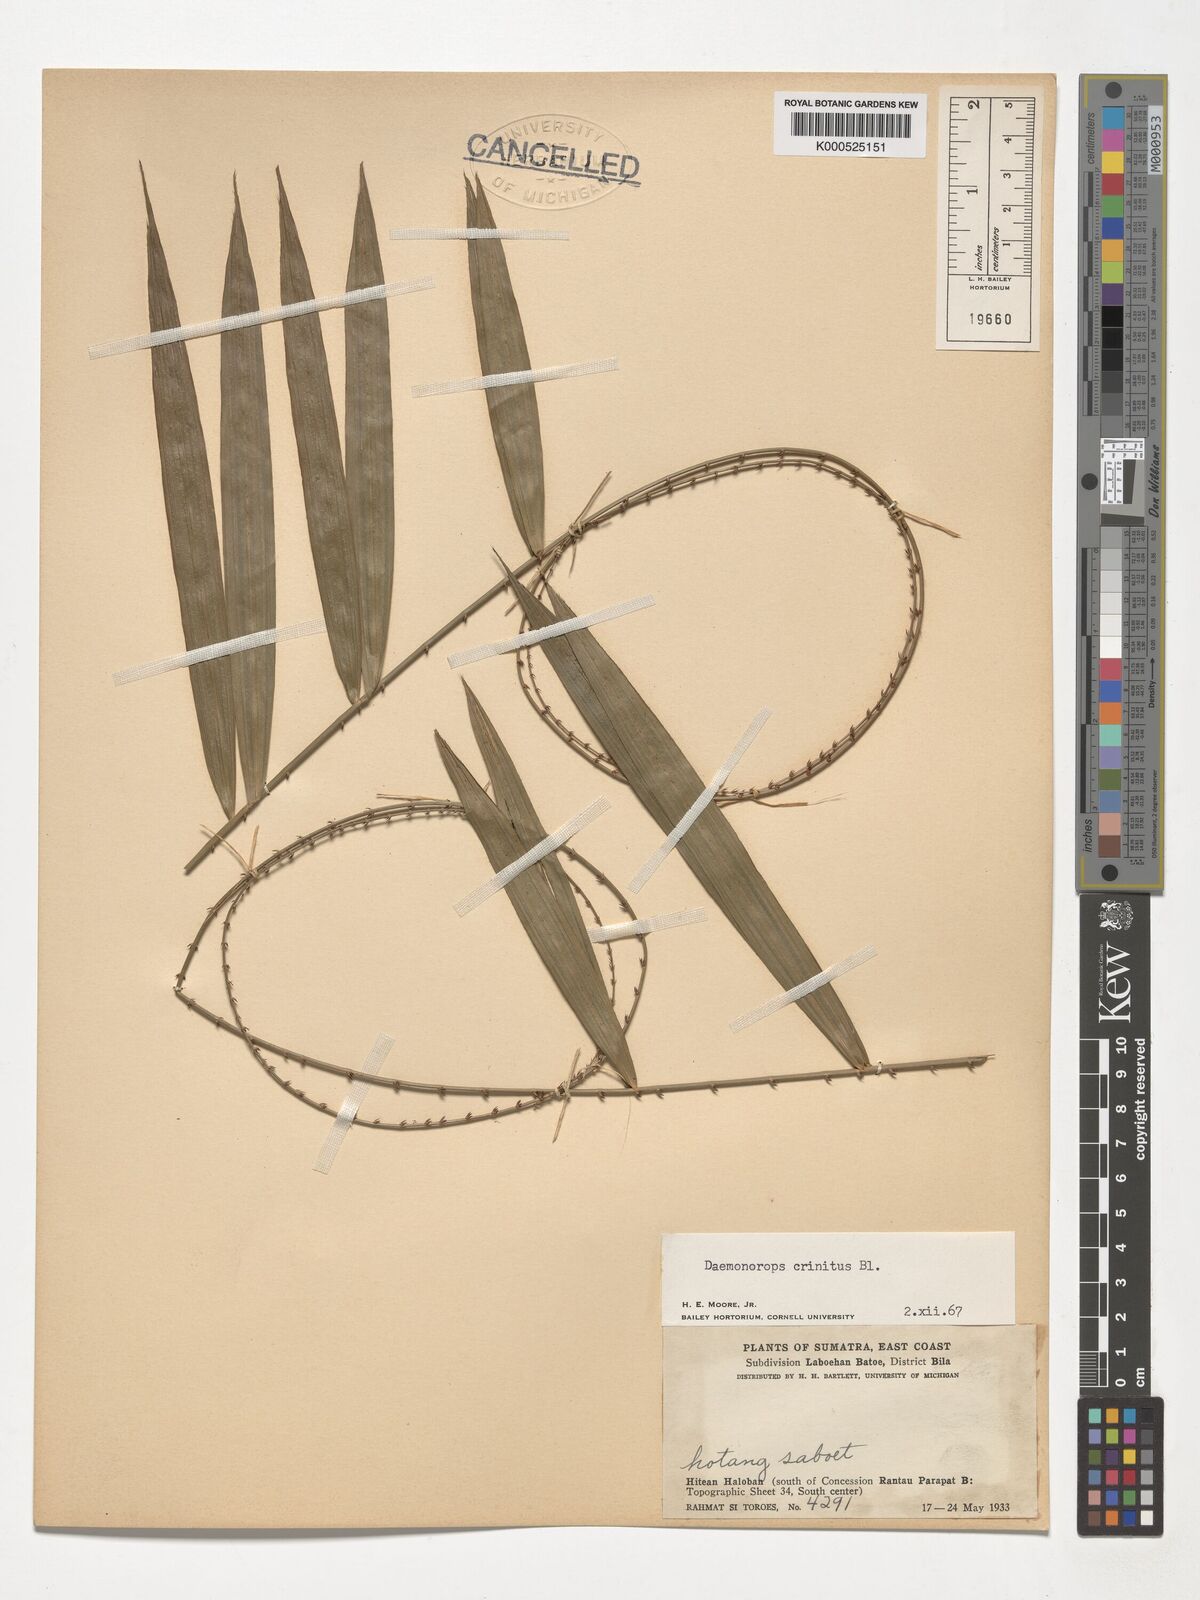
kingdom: Plantae
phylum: Tracheophyta
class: Liliopsida
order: Arecales
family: Arecaceae
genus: Calamus
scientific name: Calamus crinitus
